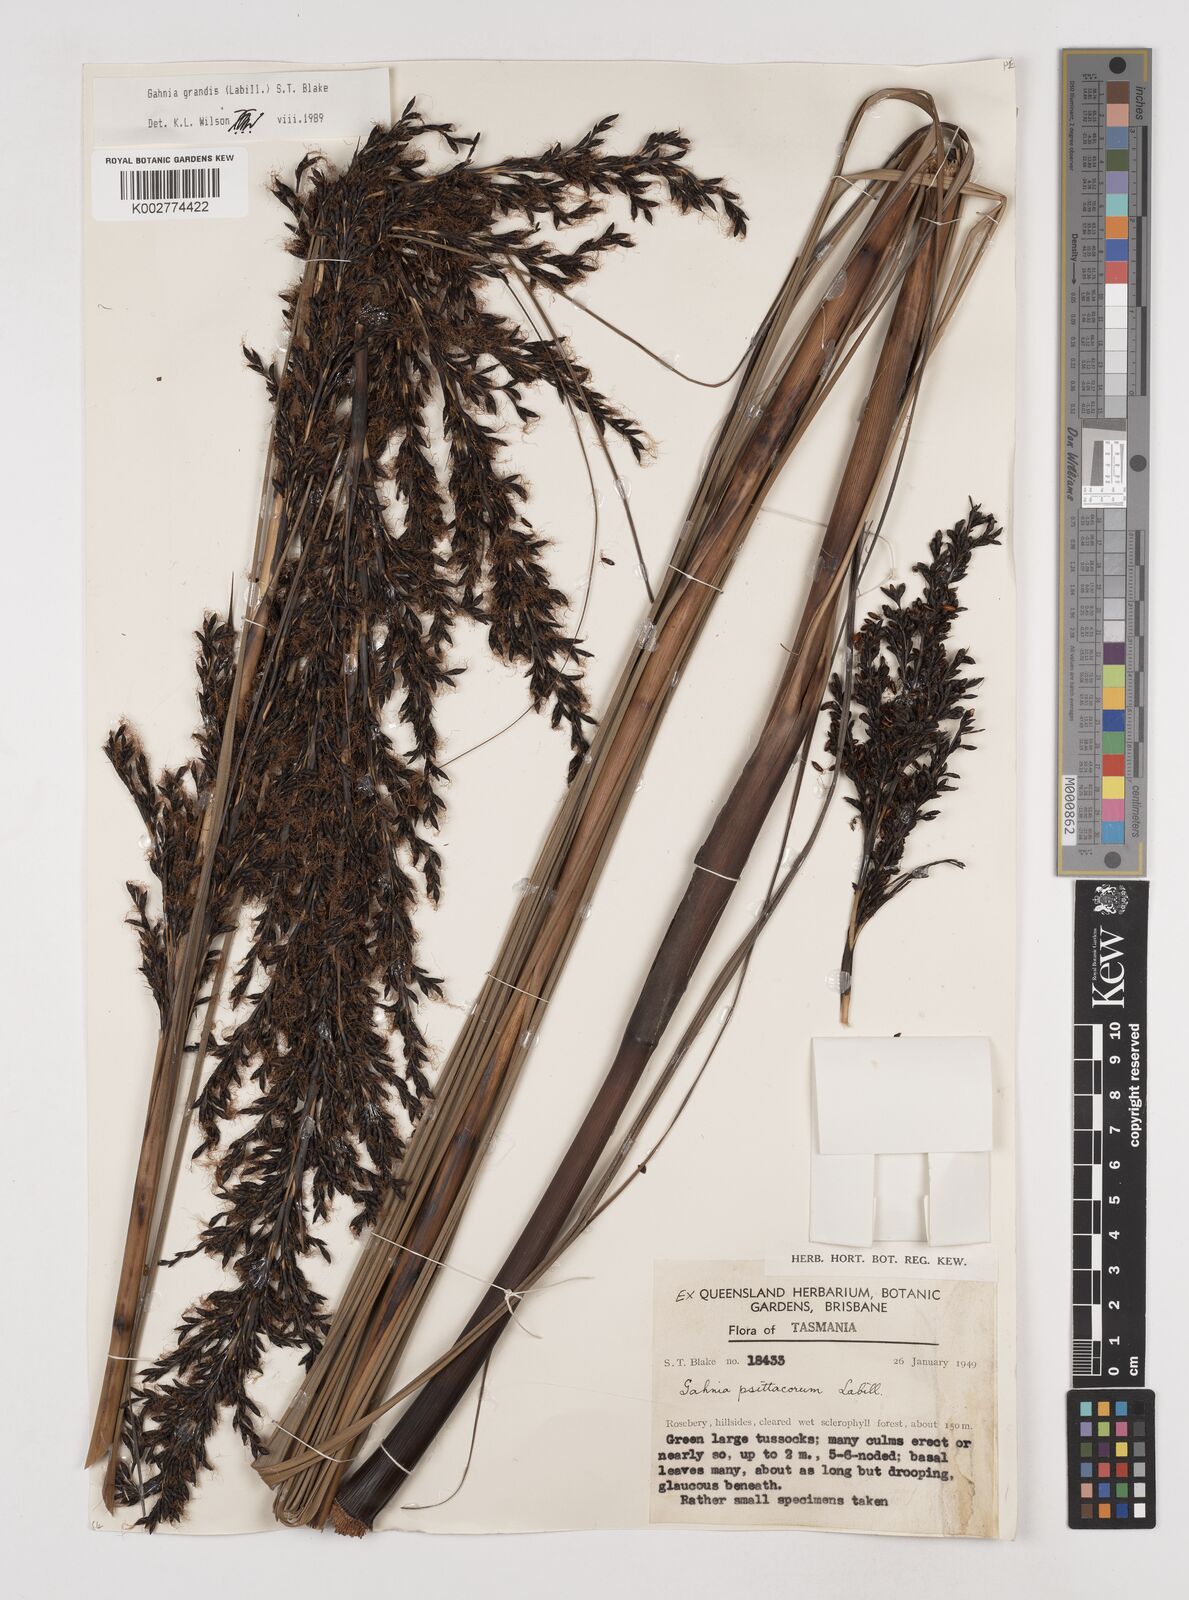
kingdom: Plantae
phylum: Tracheophyta
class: Liliopsida
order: Poales
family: Cyperaceae
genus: Gahnia
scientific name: Gahnia grandis
